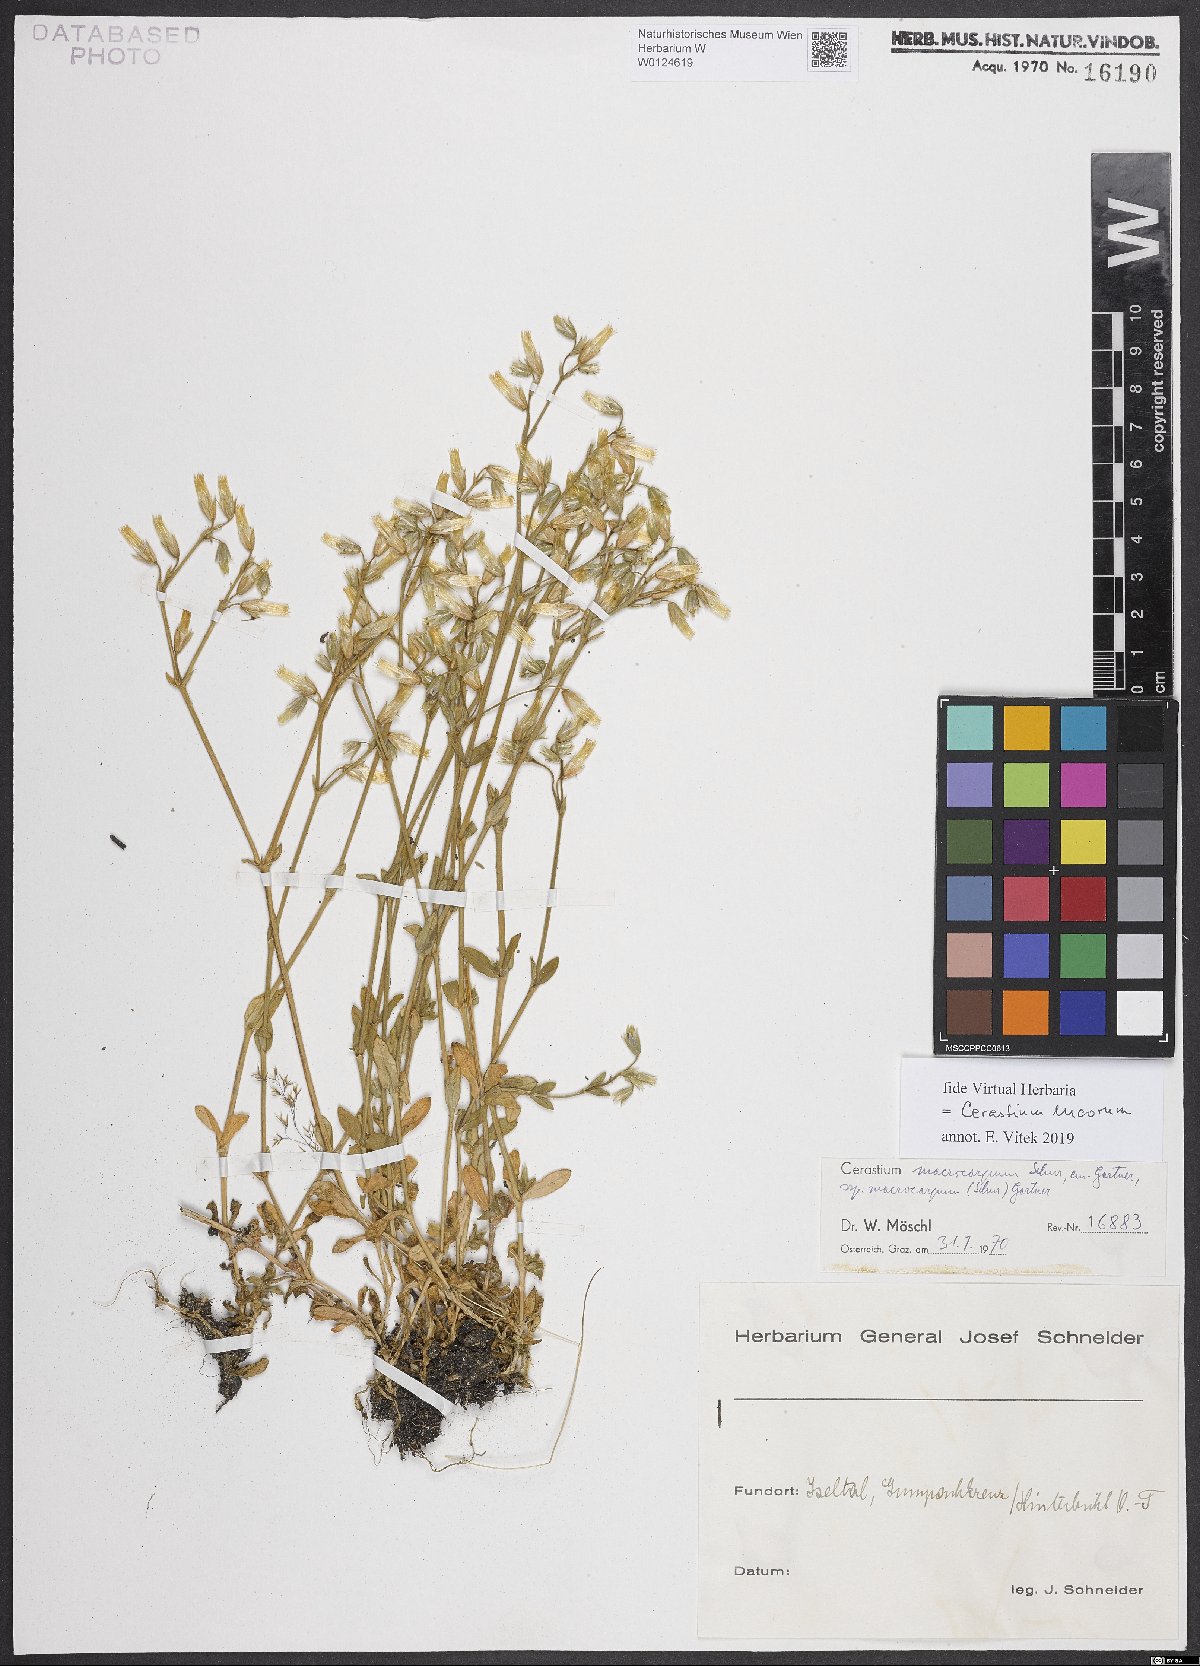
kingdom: Plantae
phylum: Tracheophyta
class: Magnoliopsida
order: Caryophyllales
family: Caryophyllaceae
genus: Cerastium
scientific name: Cerastium lucorum
